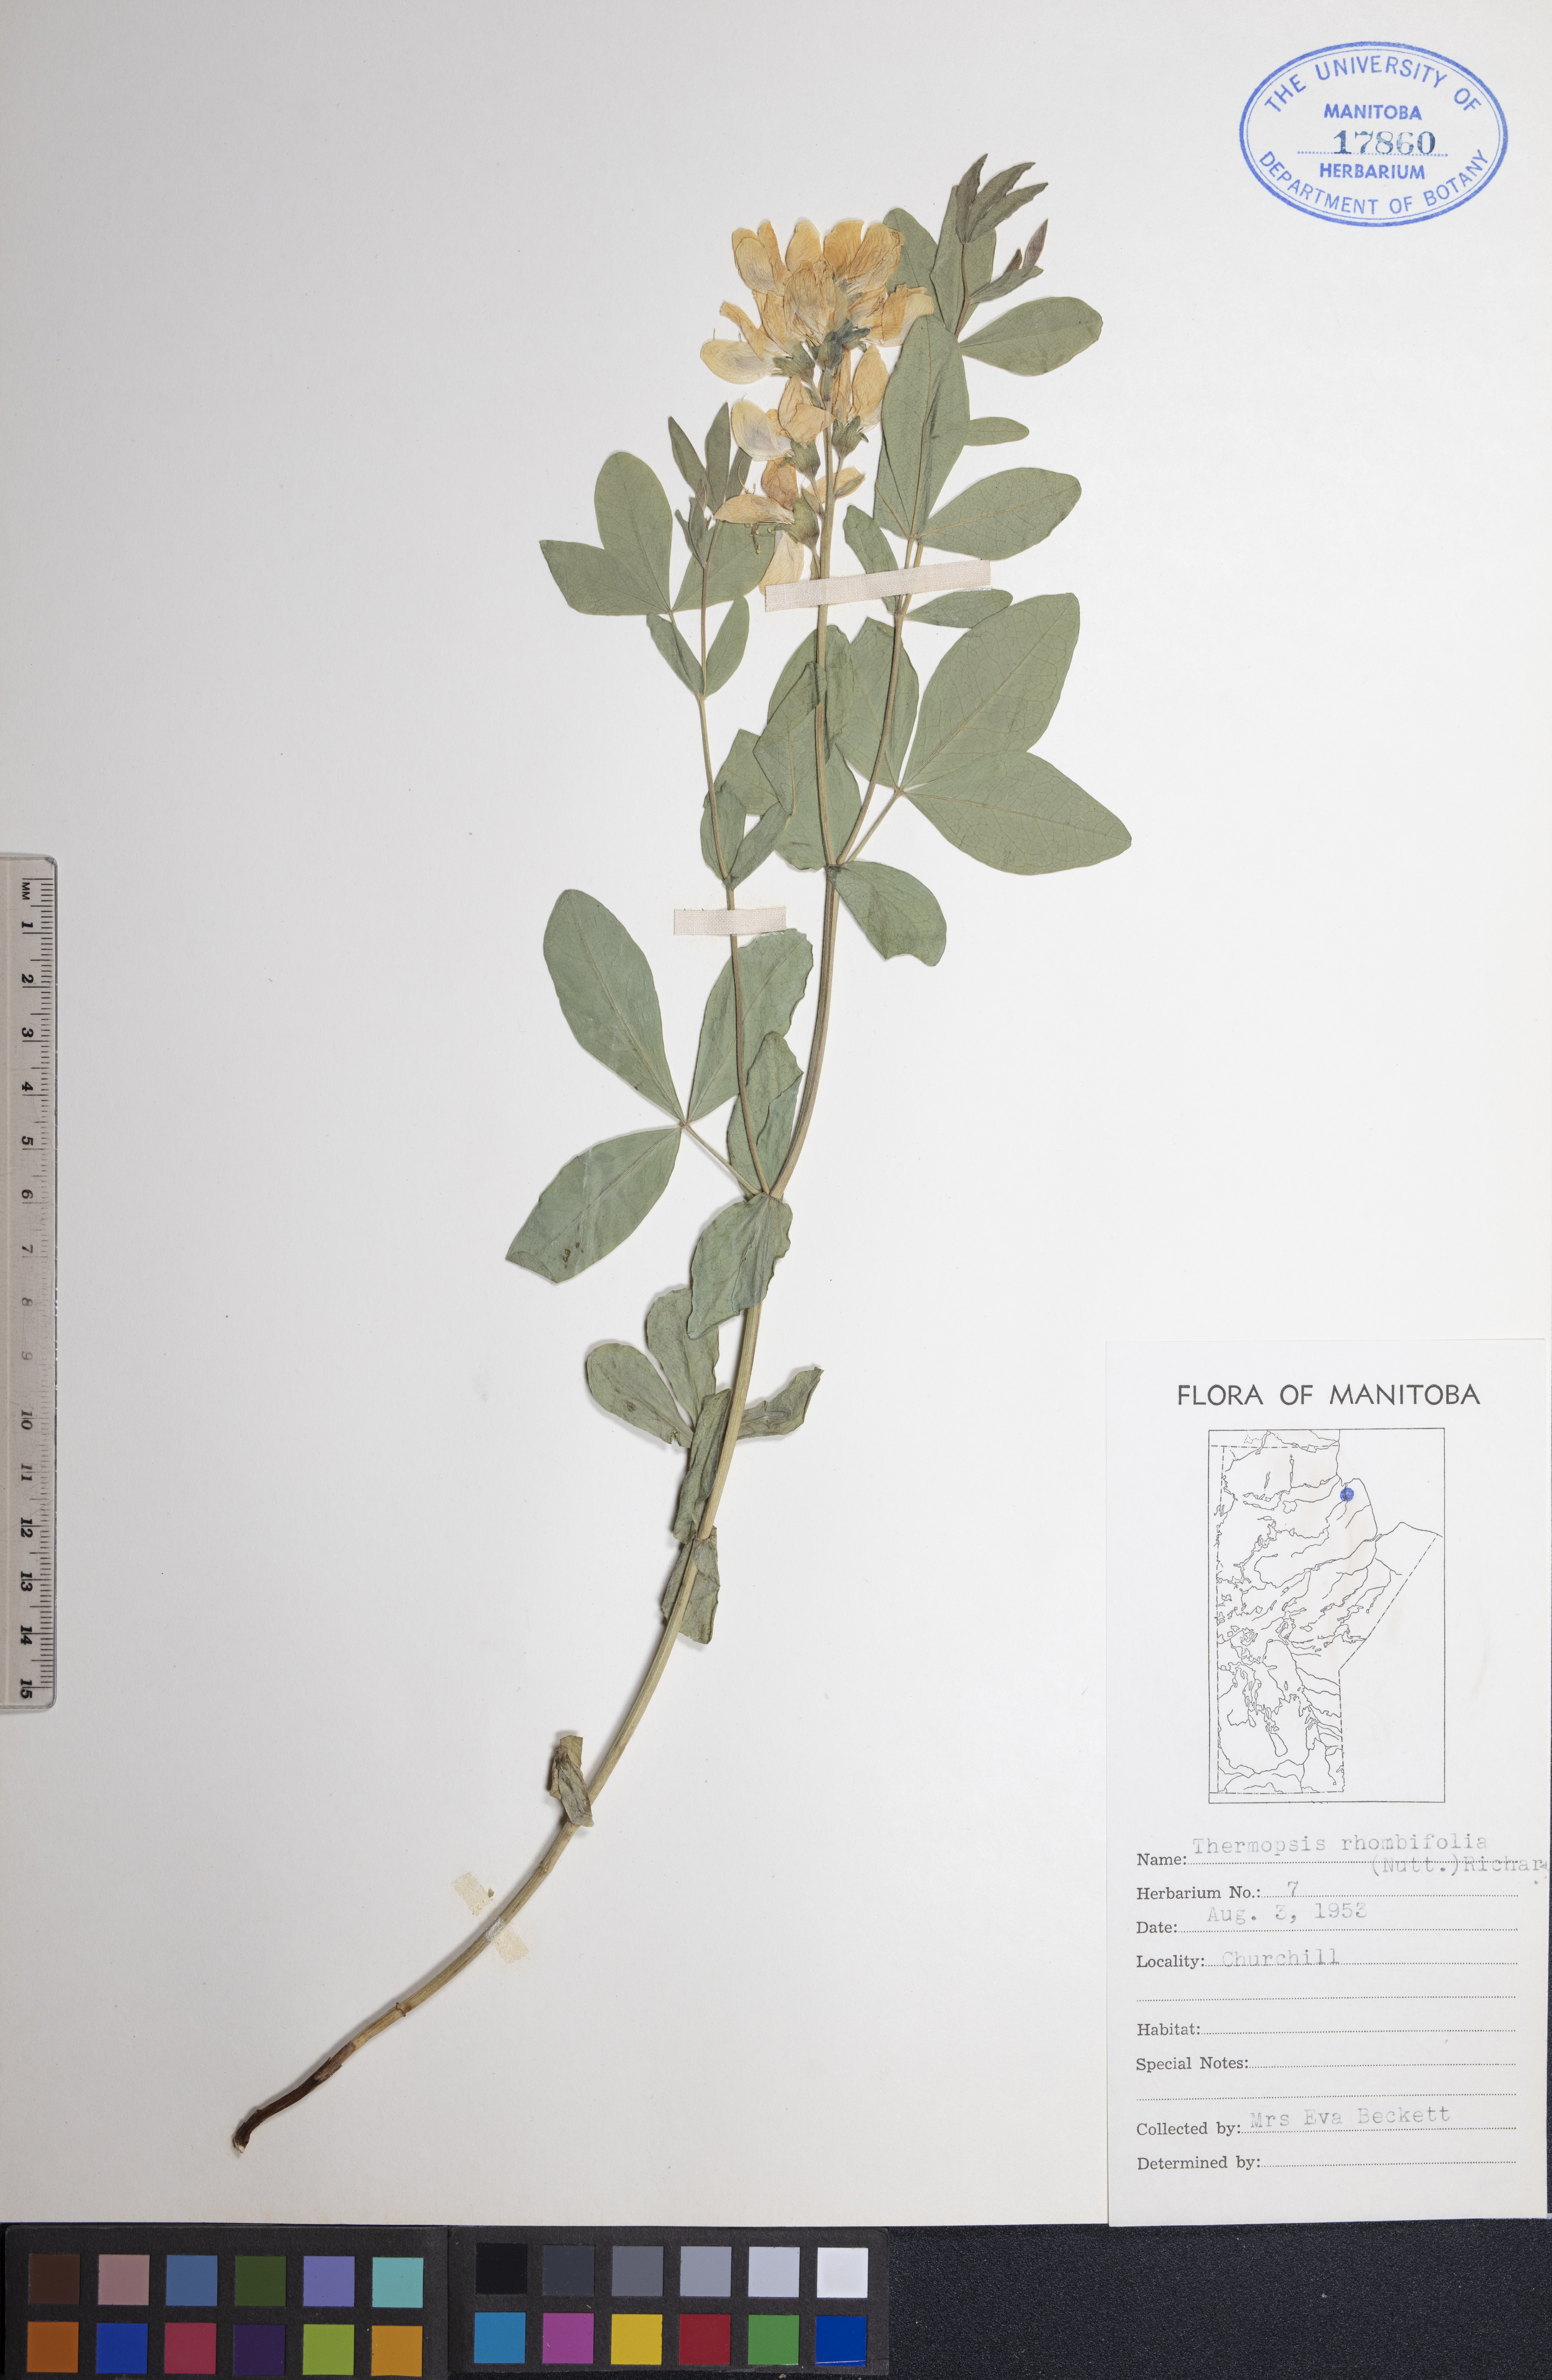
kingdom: Plantae
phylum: Tracheophyta
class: Magnoliopsida
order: Fabales
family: Fabaceae
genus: Thermopsis
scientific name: Thermopsis rhombifolia
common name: Circle-pod-pea
